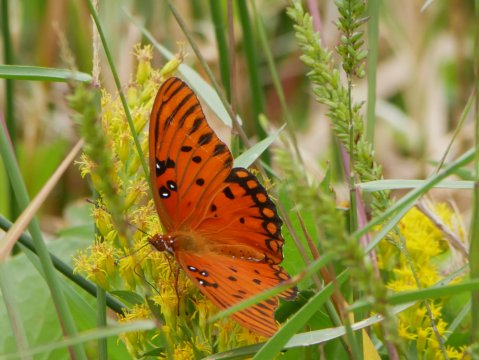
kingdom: Animalia
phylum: Arthropoda
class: Insecta
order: Lepidoptera
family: Nymphalidae
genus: Dione
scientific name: Dione vanillae
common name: Gulf Fritillary
